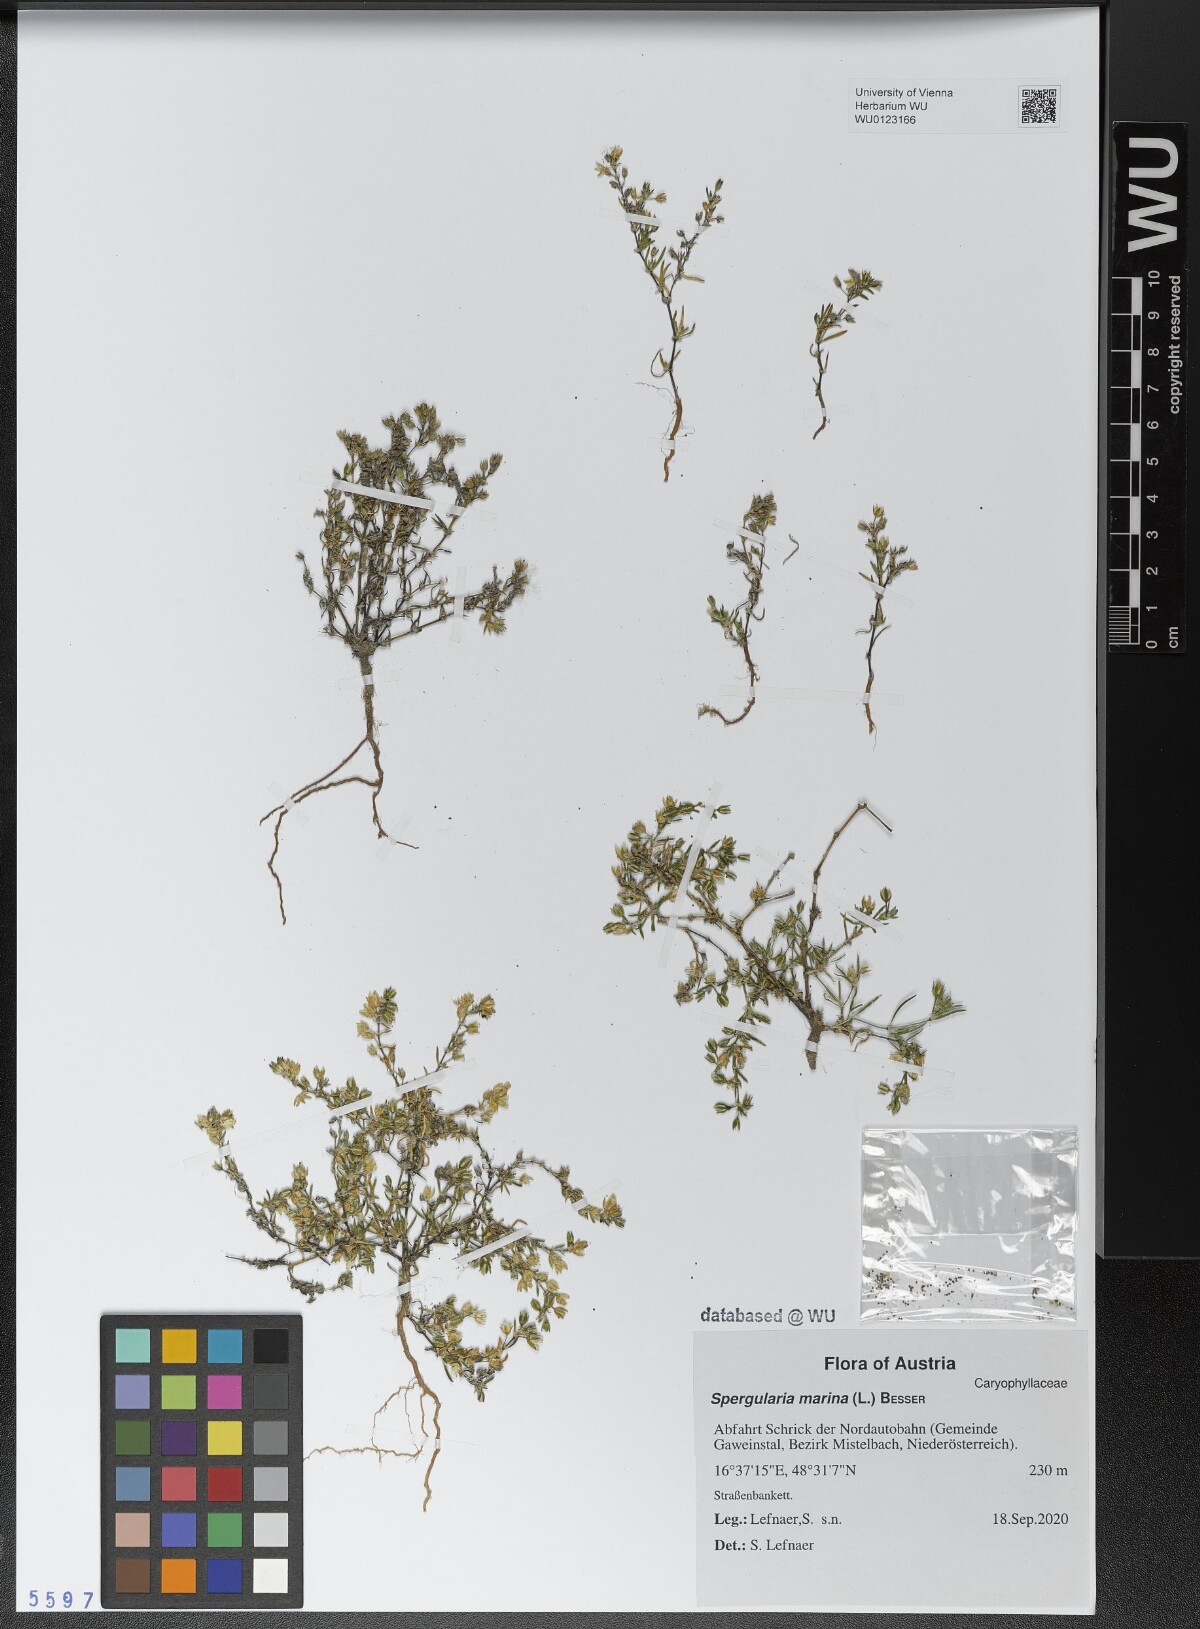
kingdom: Plantae
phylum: Tracheophyta
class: Magnoliopsida
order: Caryophyllales
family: Caryophyllaceae
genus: Spergularia
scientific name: Spergularia marina
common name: Lesser sea-spurrey
